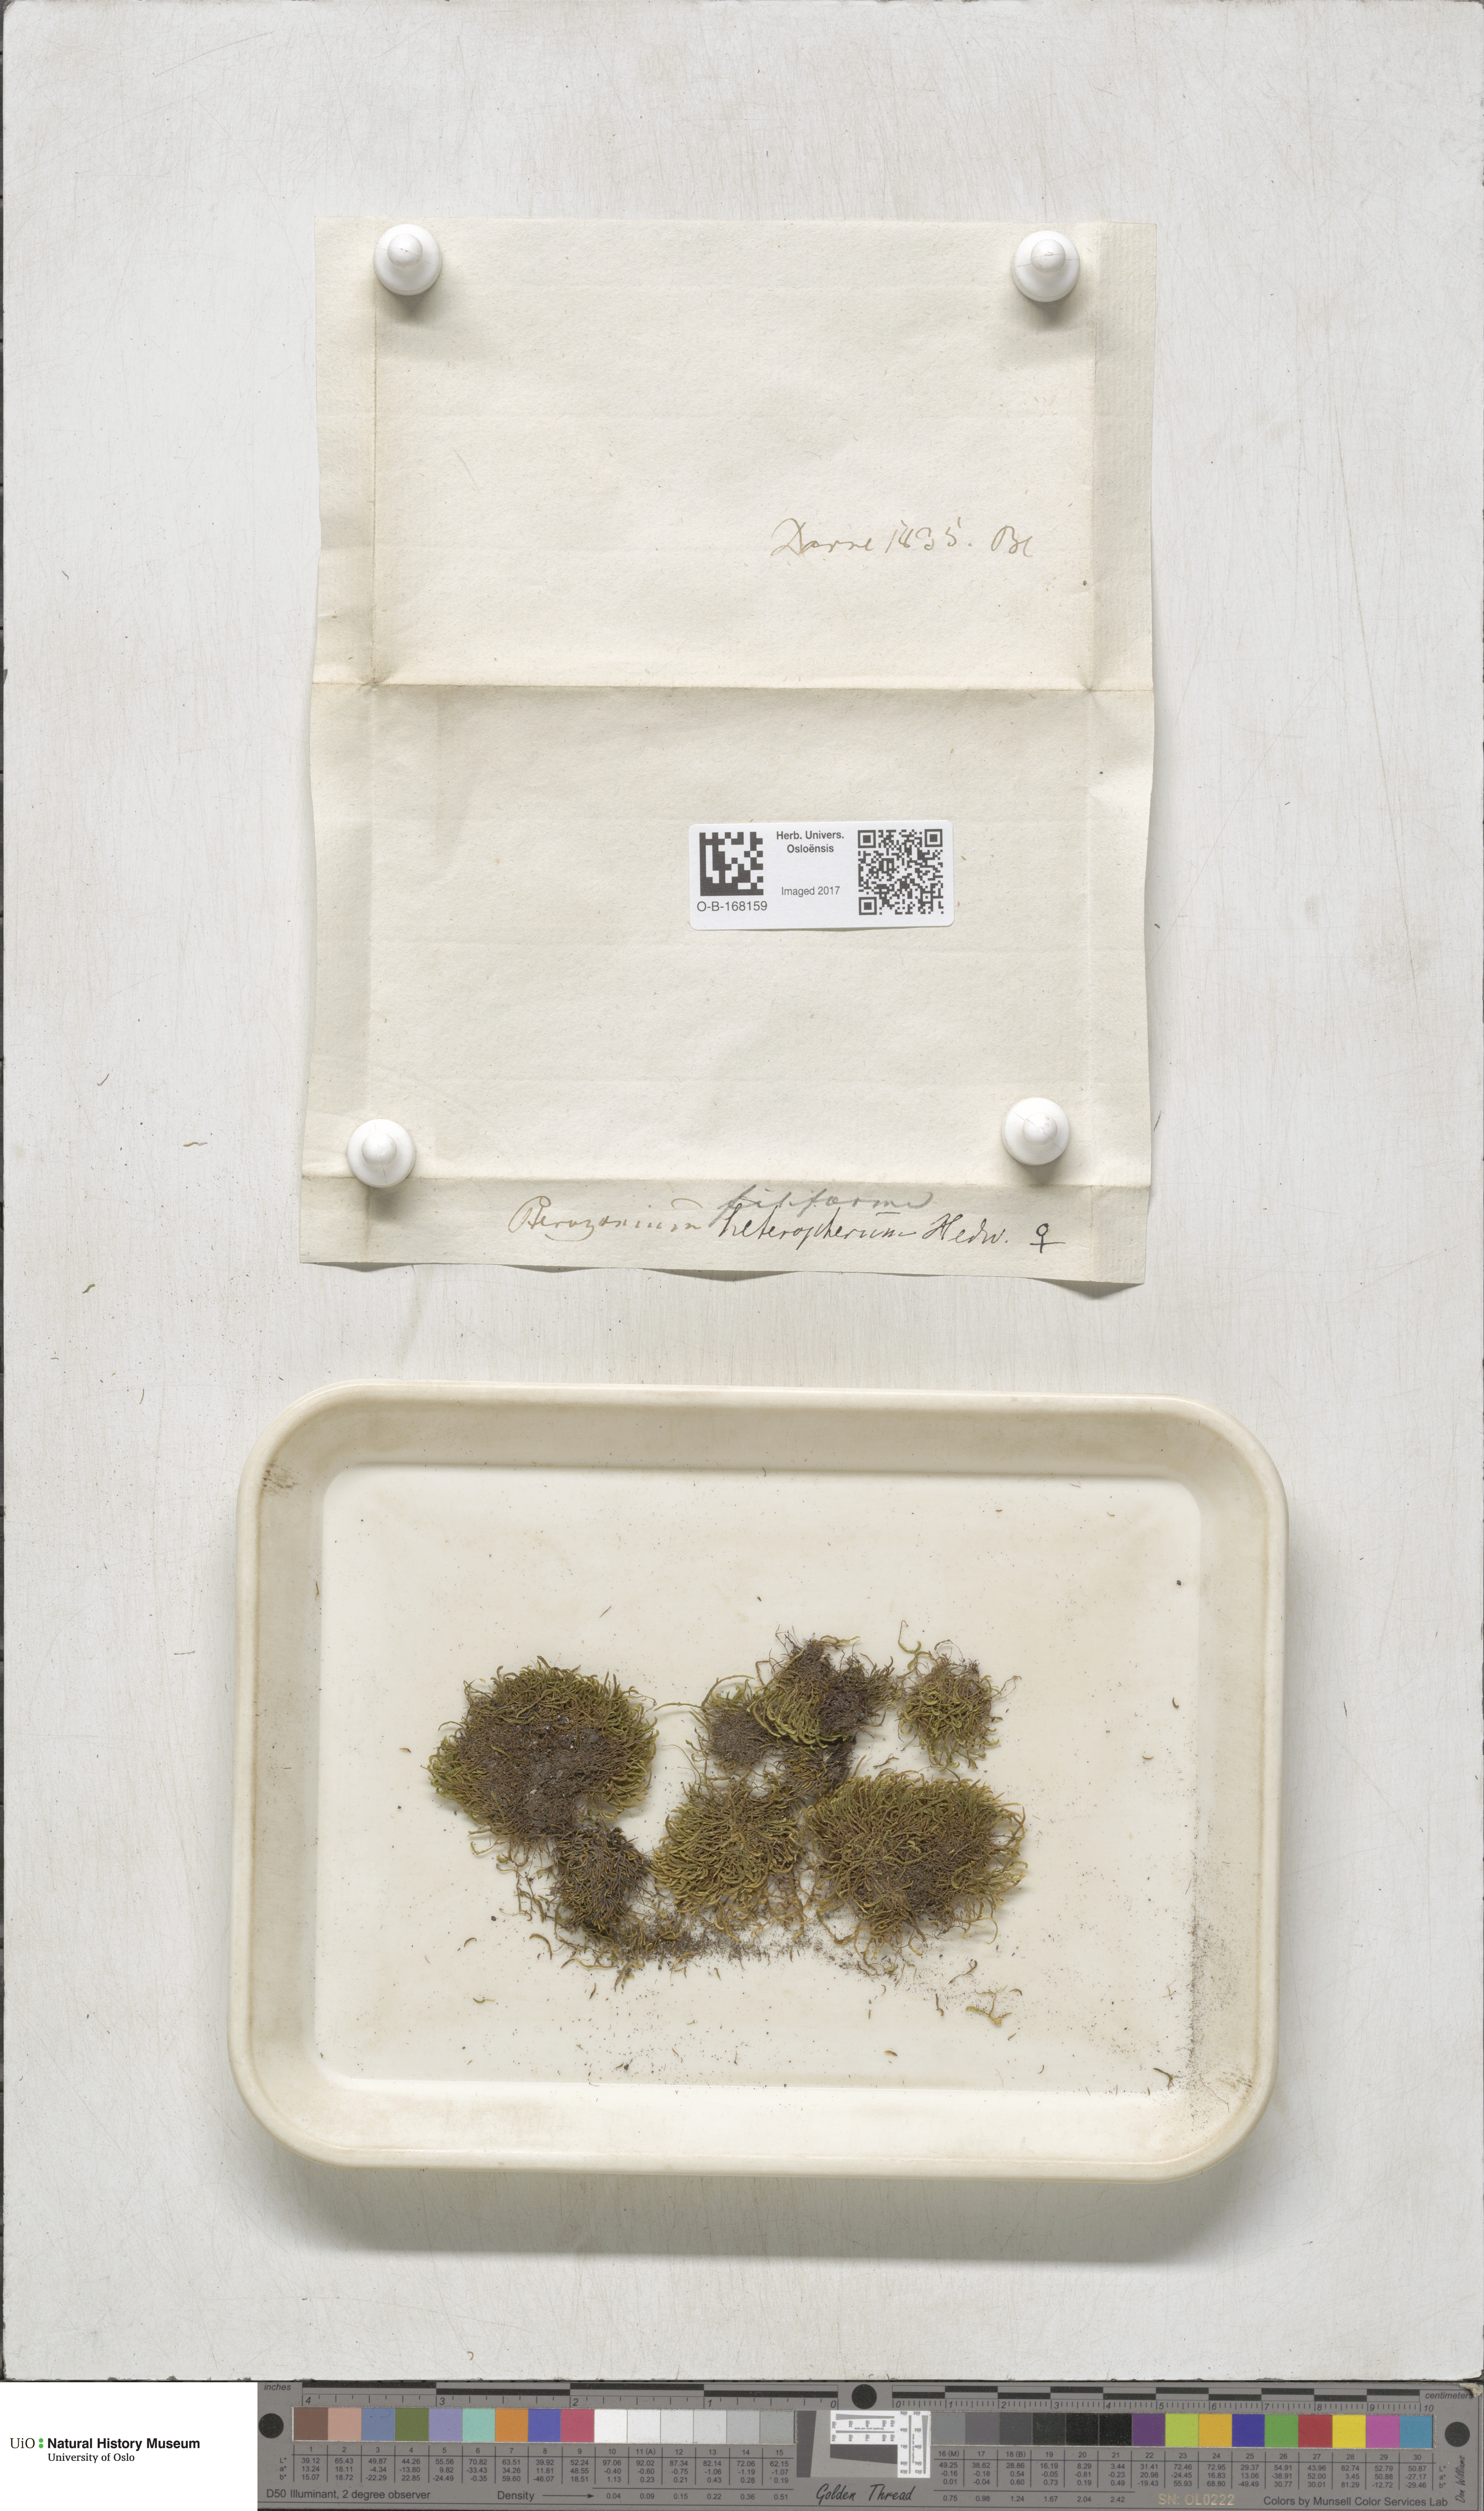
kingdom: Plantae
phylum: Bryophyta
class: Bryopsida
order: Hypnales
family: Pterigynandraceae
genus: Pterigynandrum
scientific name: Pterigynandrum filiforme
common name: Capillary wing moss
